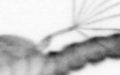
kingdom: Animalia
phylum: Arthropoda
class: Copepoda
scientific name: Copepoda
